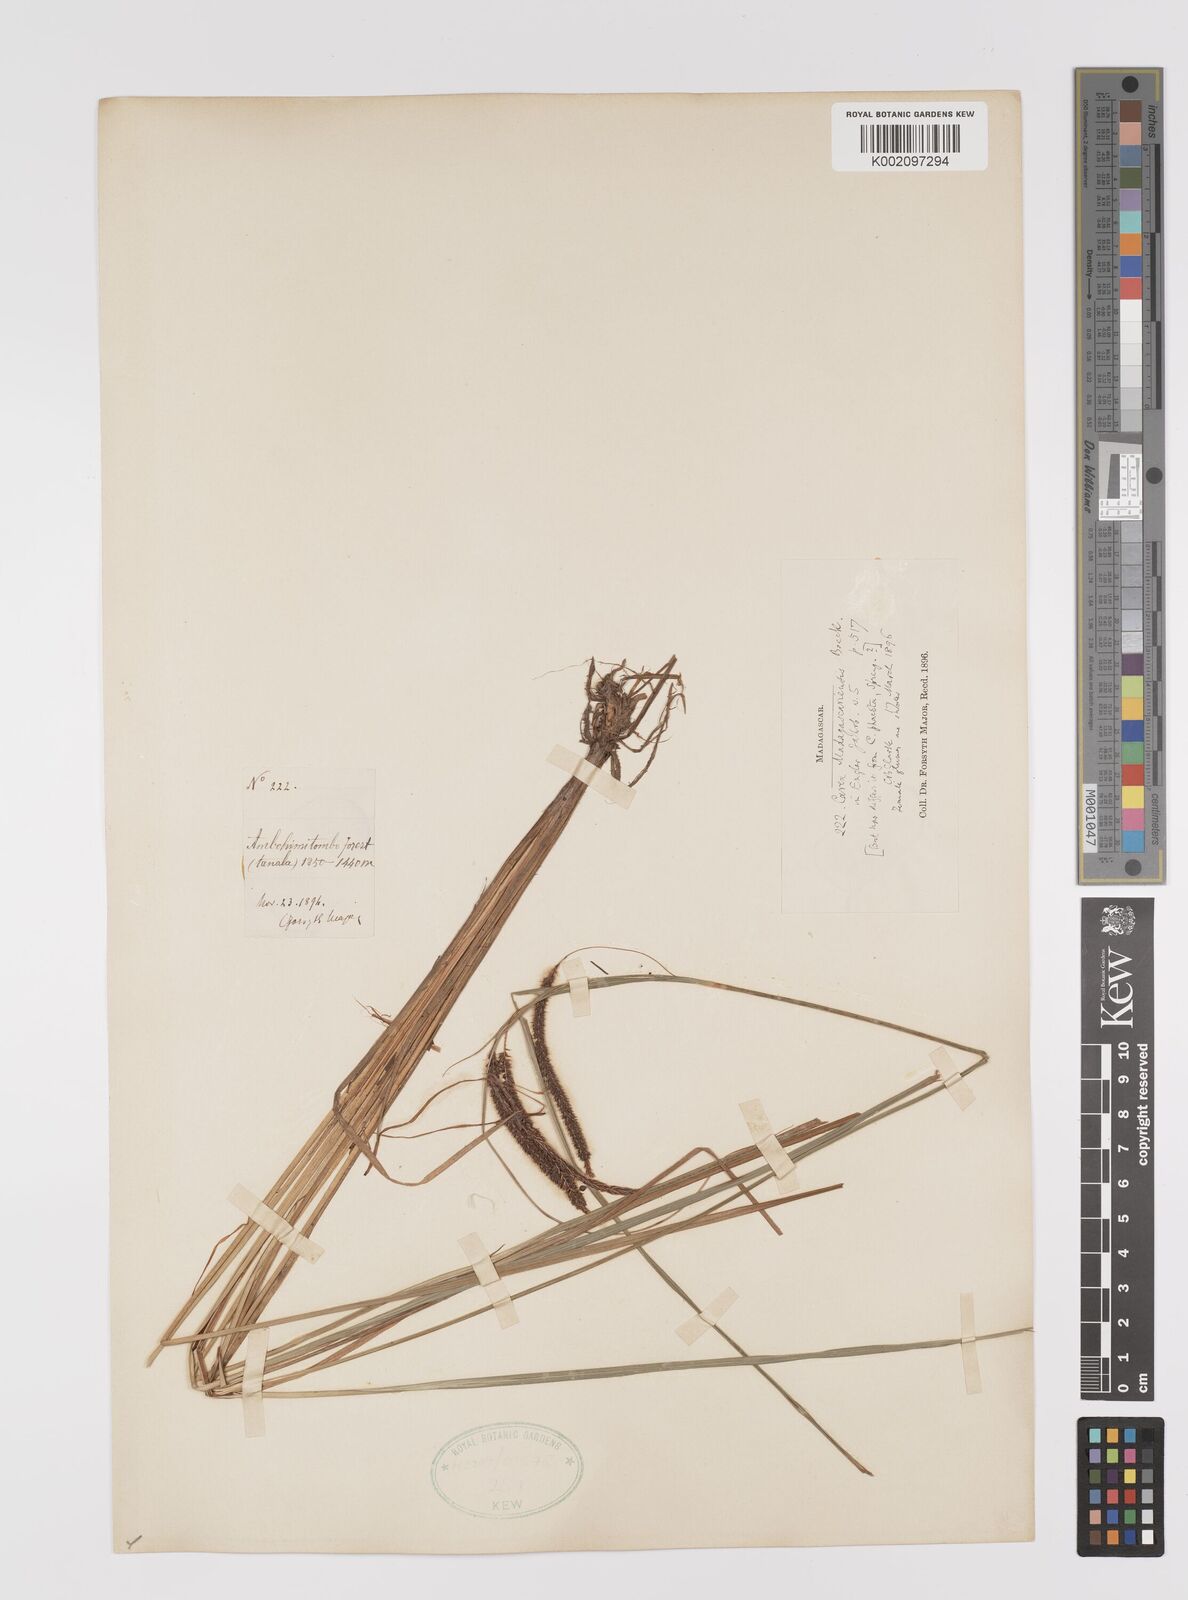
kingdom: Plantae
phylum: Tracheophyta
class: Liliopsida
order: Poales
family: Cyperaceae
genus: Carex
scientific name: Carex madagascariensis
